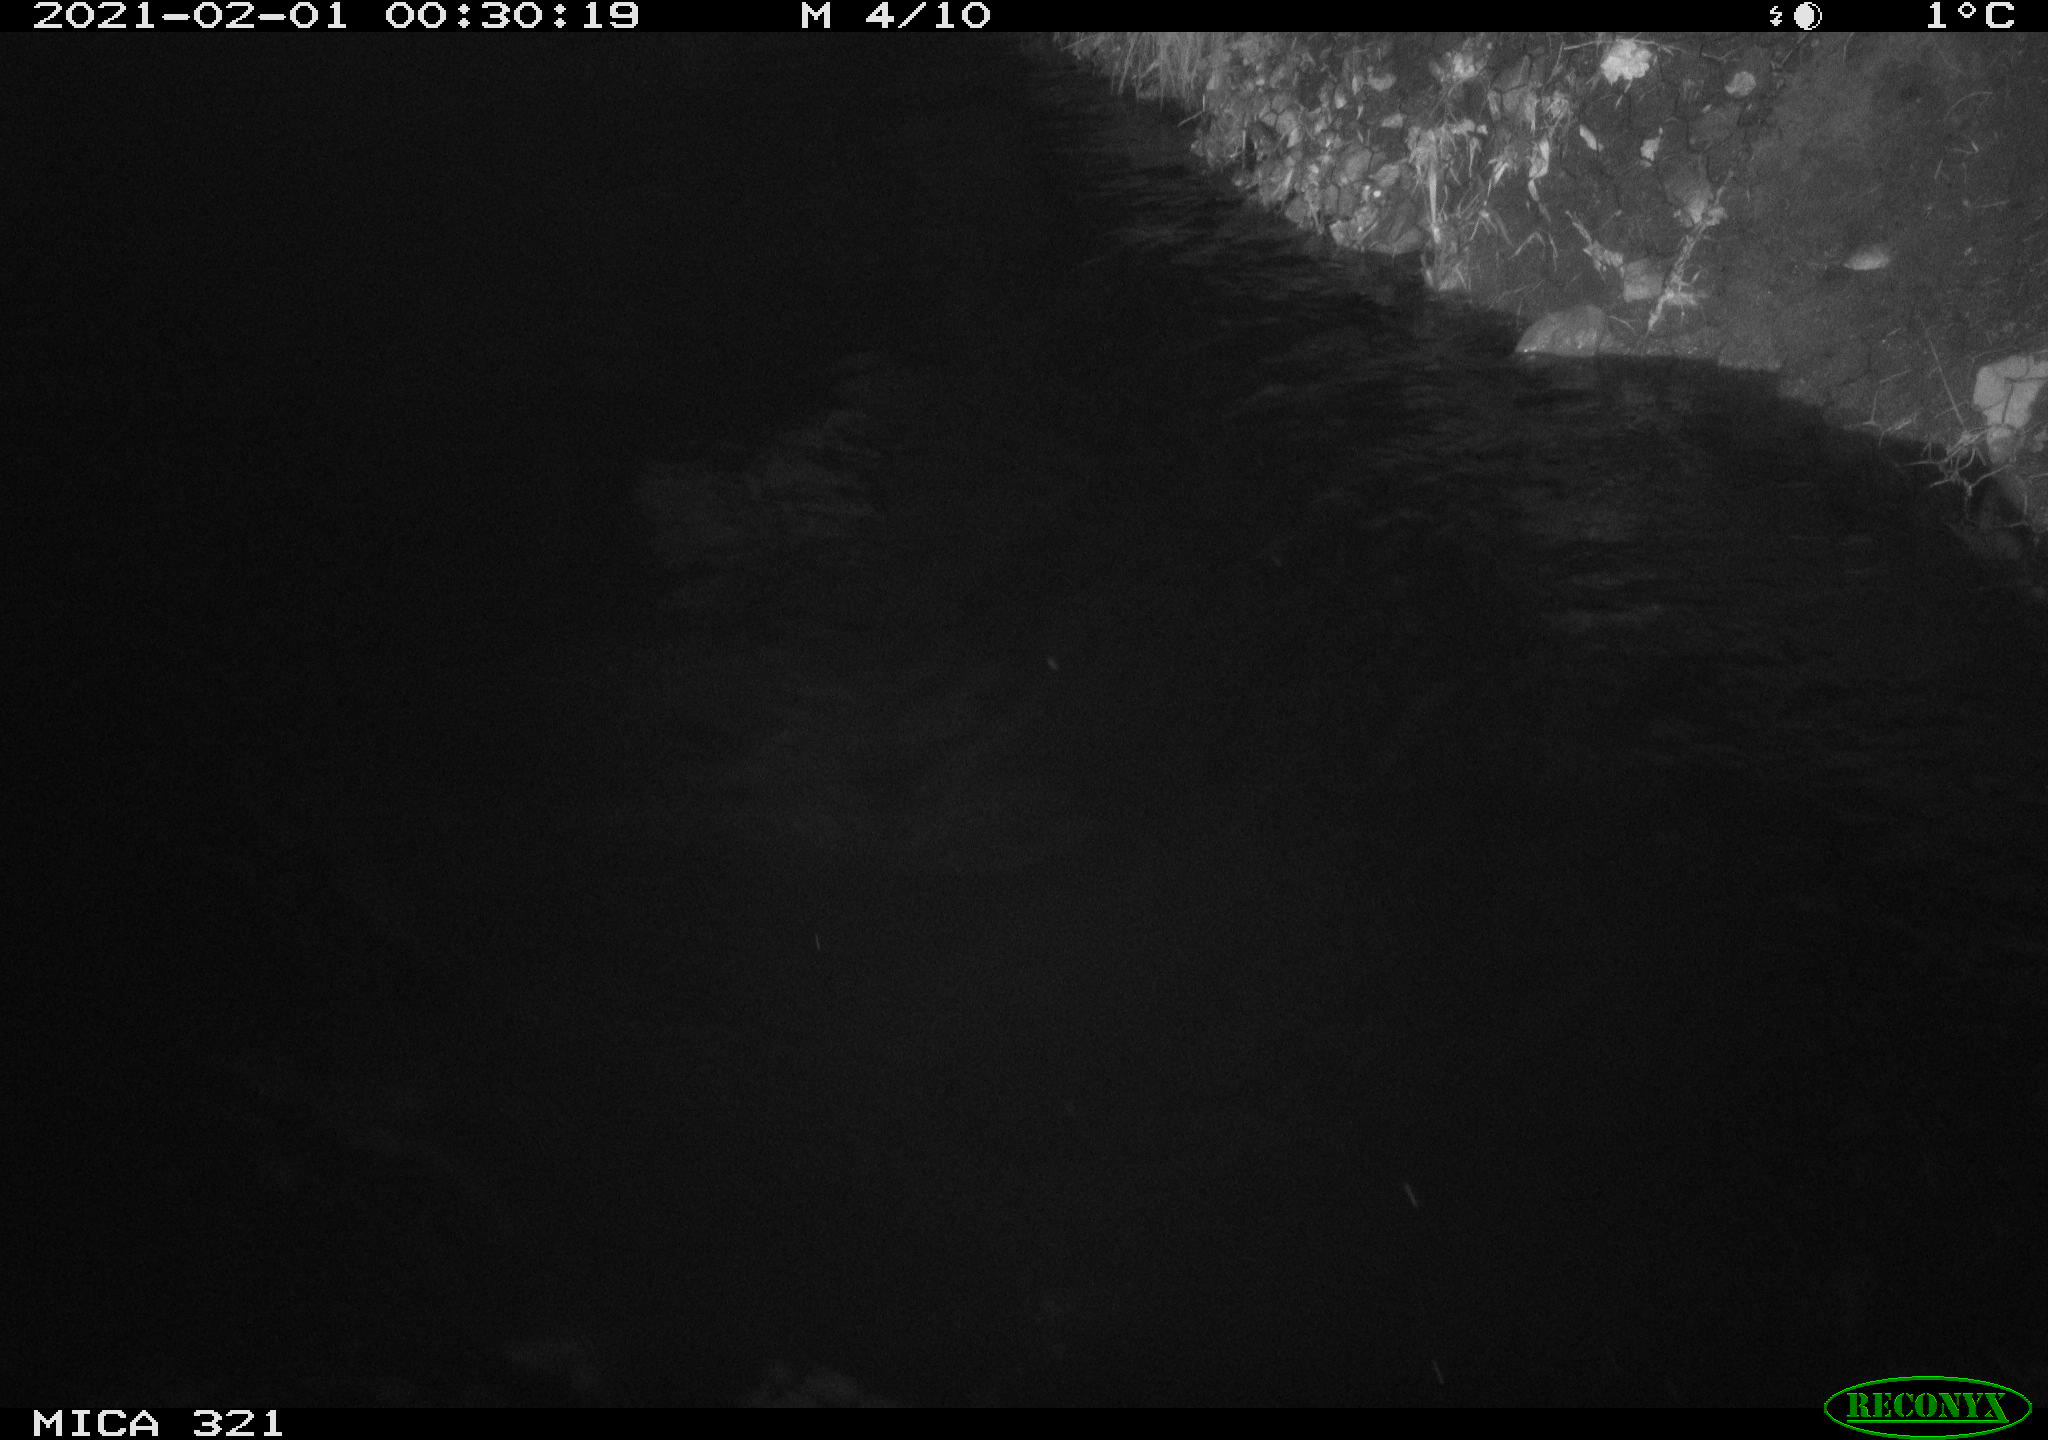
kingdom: Animalia
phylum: Chordata
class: Aves
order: Anseriformes
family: Anatidae
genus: Anas
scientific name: Anas platyrhynchos
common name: Mallard
